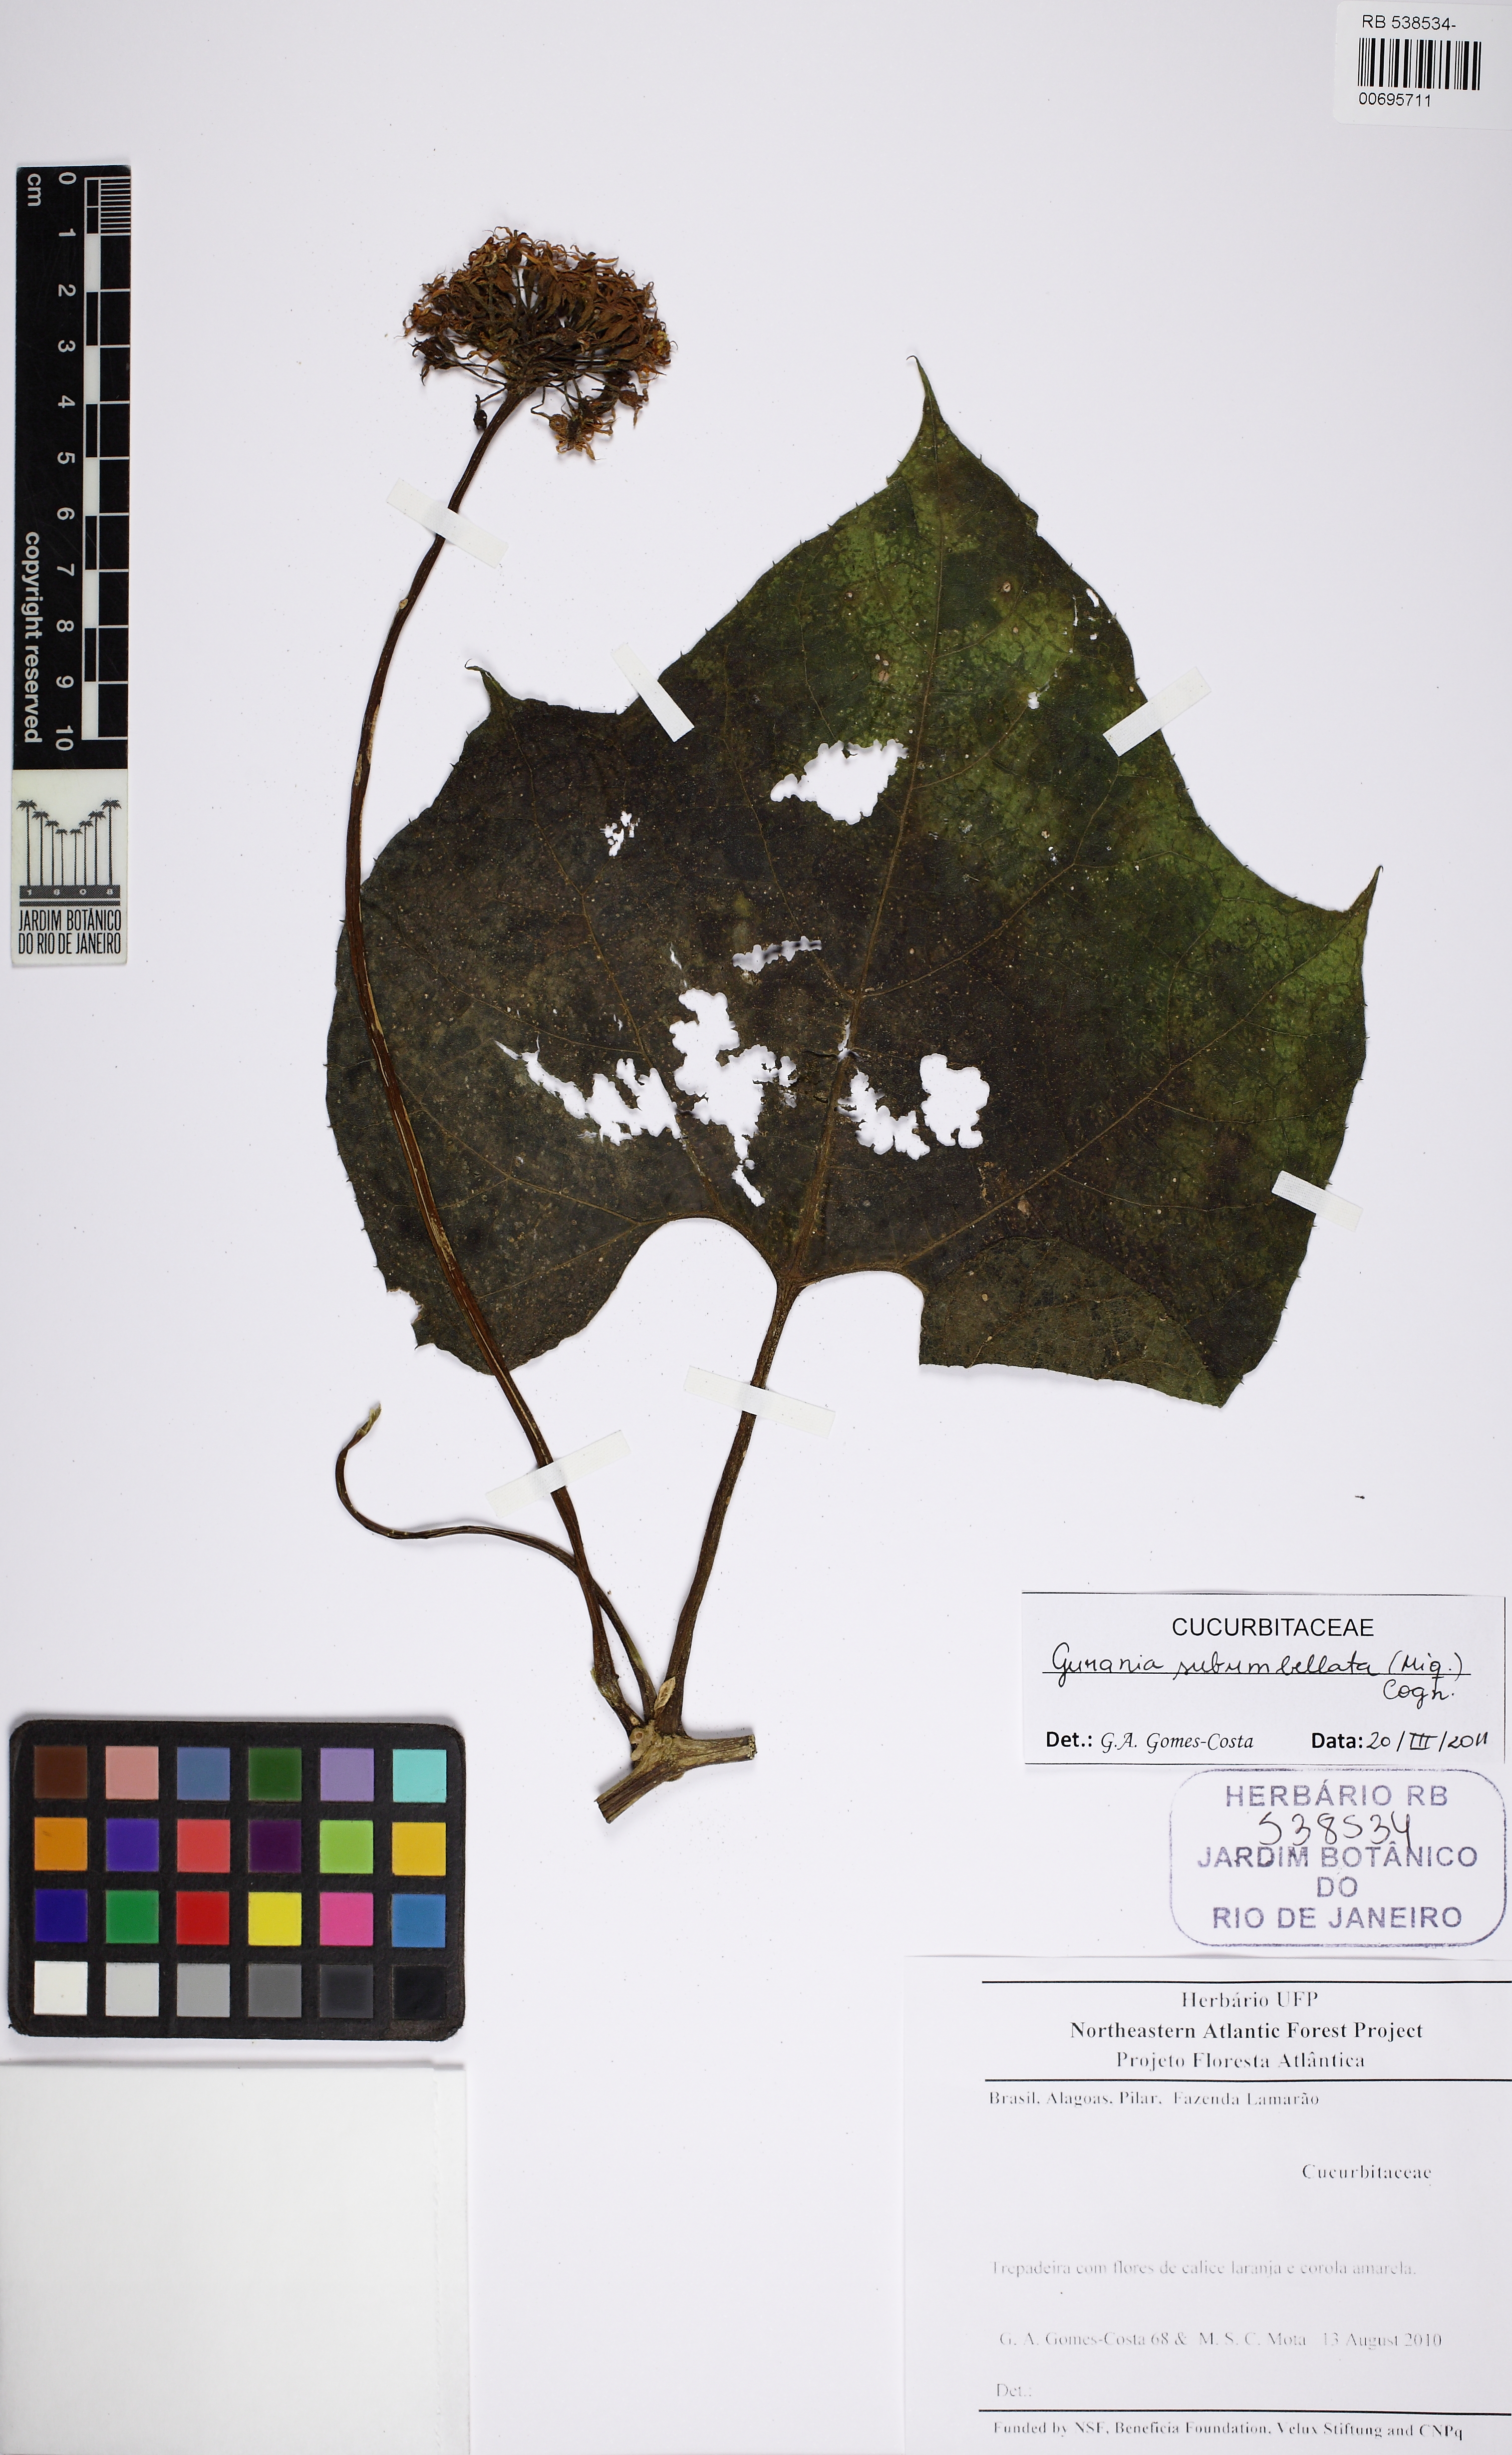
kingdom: Plantae
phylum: Tracheophyta
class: Magnoliopsida
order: Cucurbitales
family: Cucurbitaceae
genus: Gurania
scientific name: Gurania subumbellata
